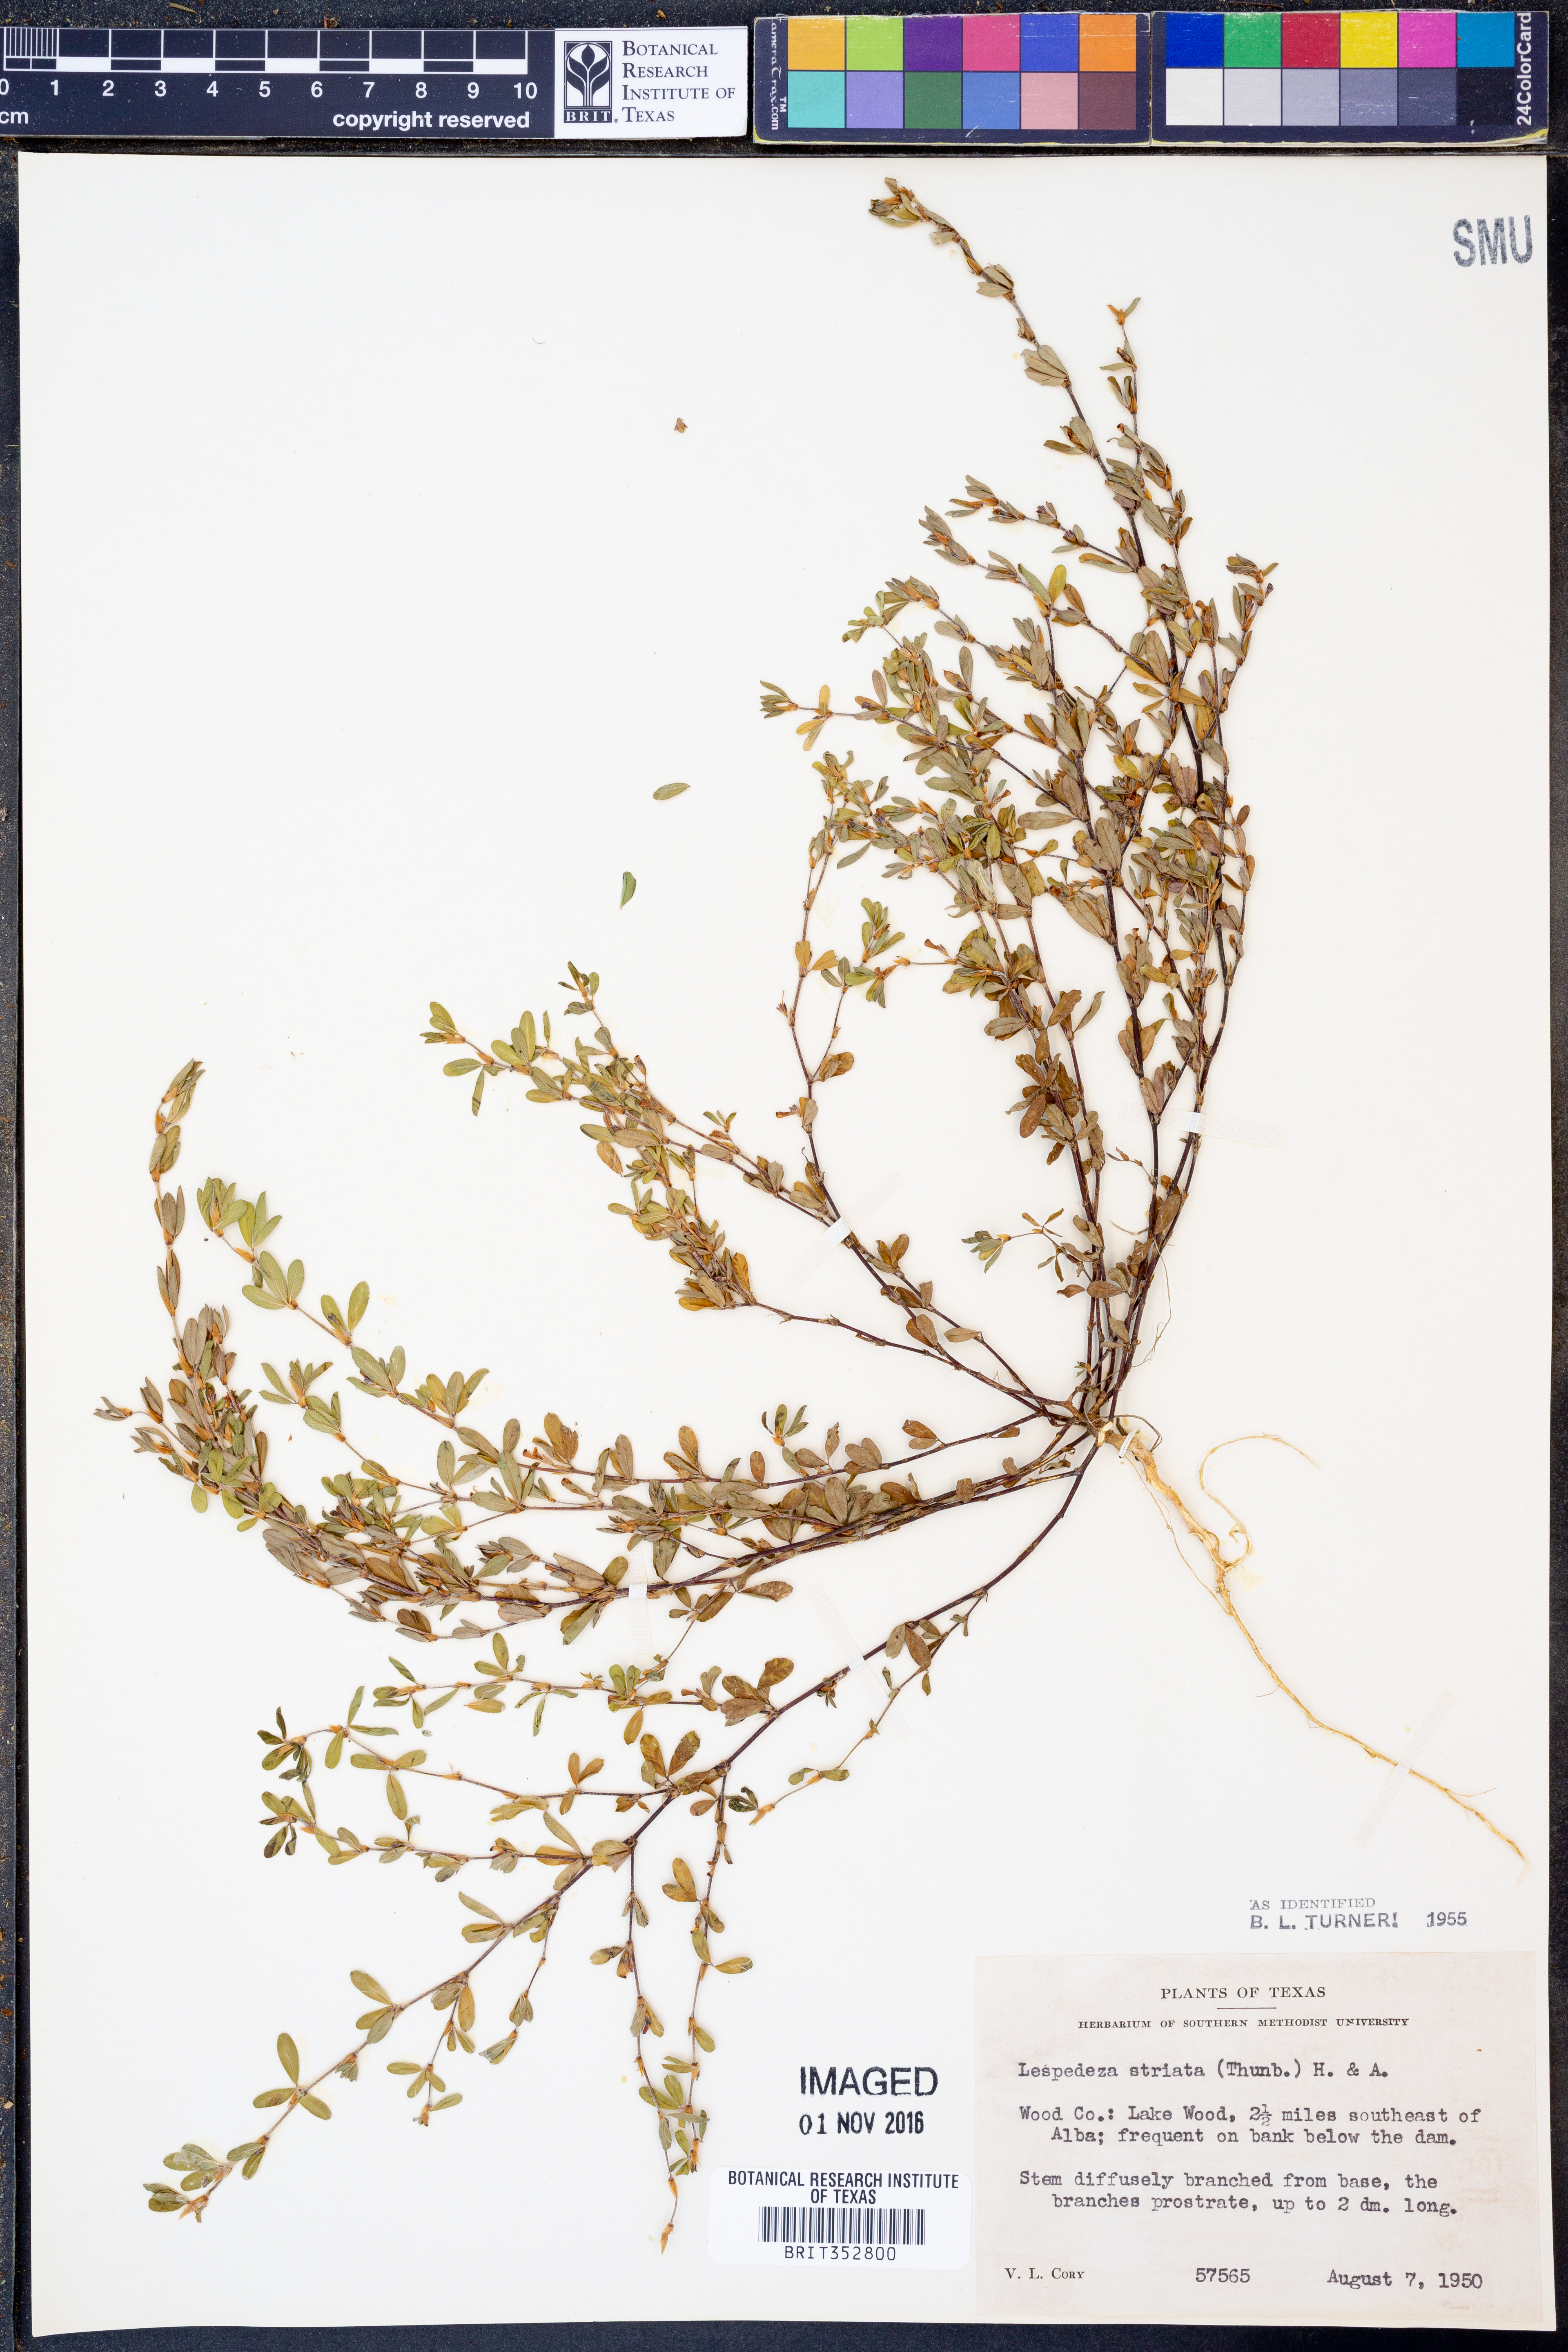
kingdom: Plantae
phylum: Tracheophyta
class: Magnoliopsida
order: Fabales
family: Fabaceae
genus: Kummerowia
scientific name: Kummerowia striata
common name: Japanese clover
